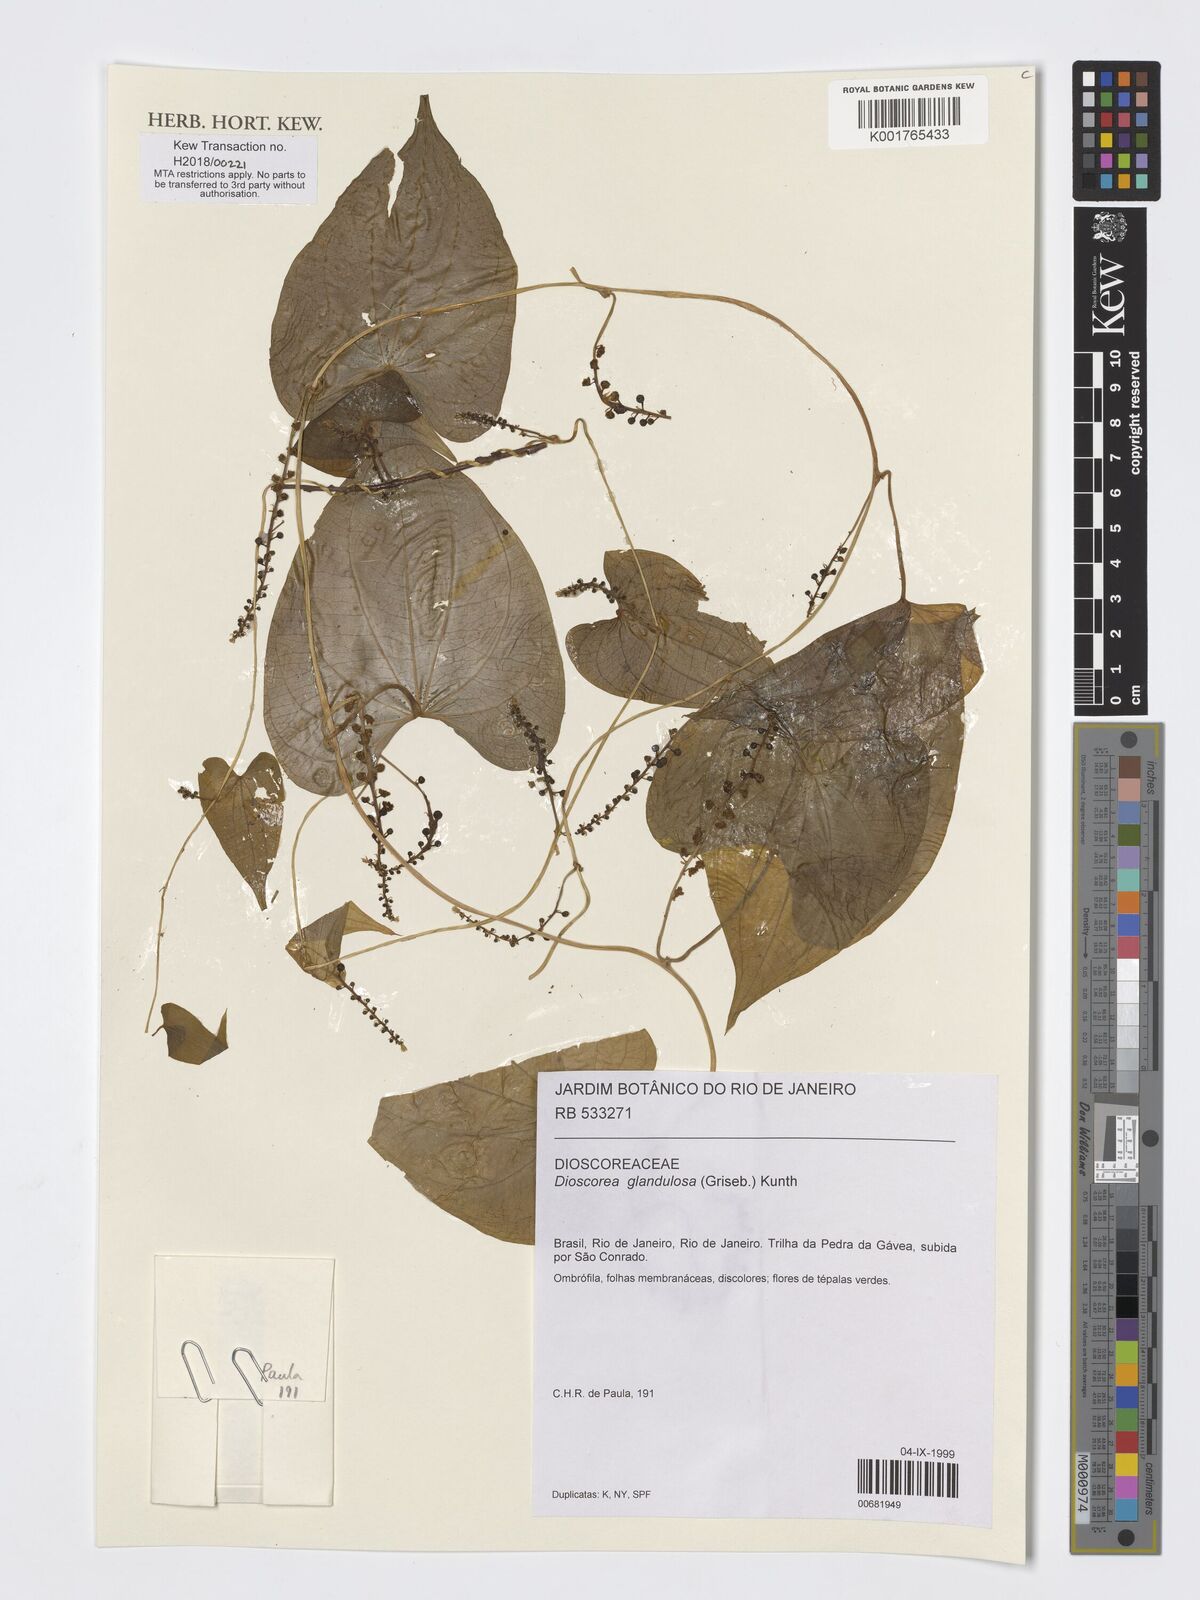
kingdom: Plantae
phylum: Tracheophyta
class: Liliopsida
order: Dioscoreales
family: Dioscoreaceae
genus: Dioscorea
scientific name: Dioscorea glandulosa
